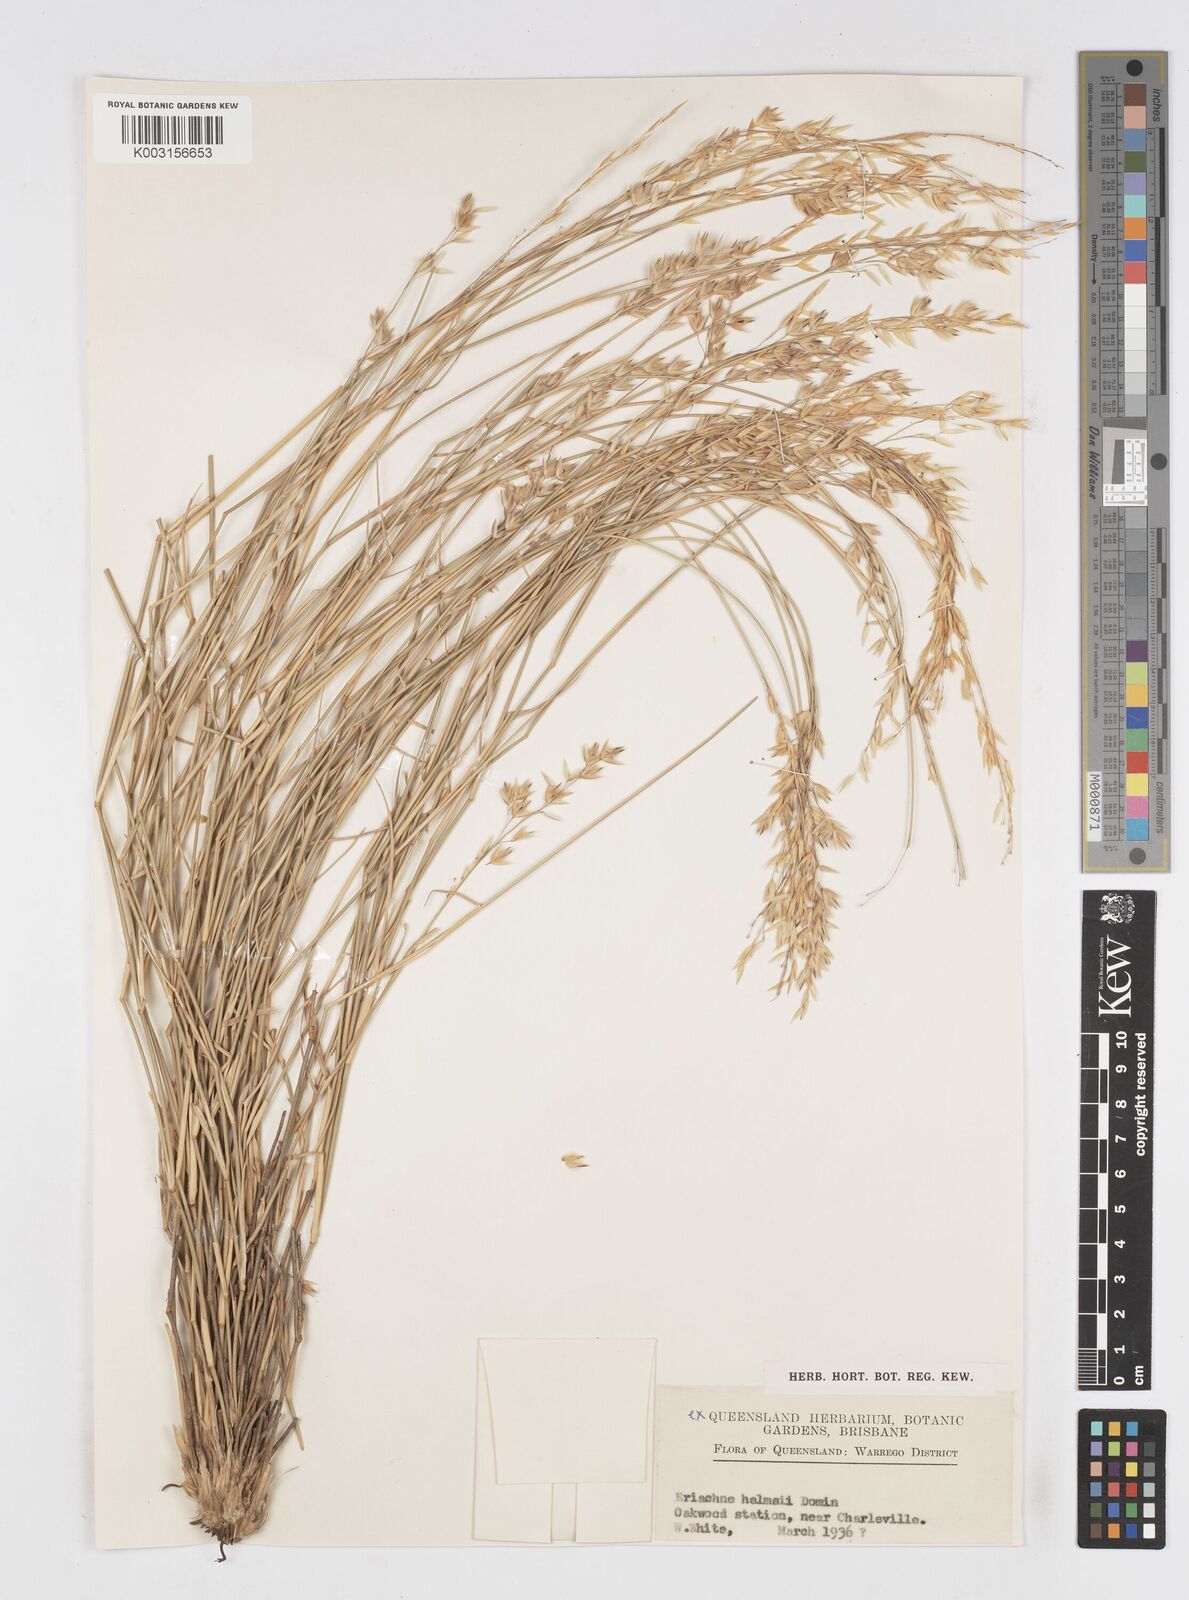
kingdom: Plantae
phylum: Tracheophyta
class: Liliopsida
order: Poales
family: Poaceae
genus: Eriachne
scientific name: Eriachne helmsii
